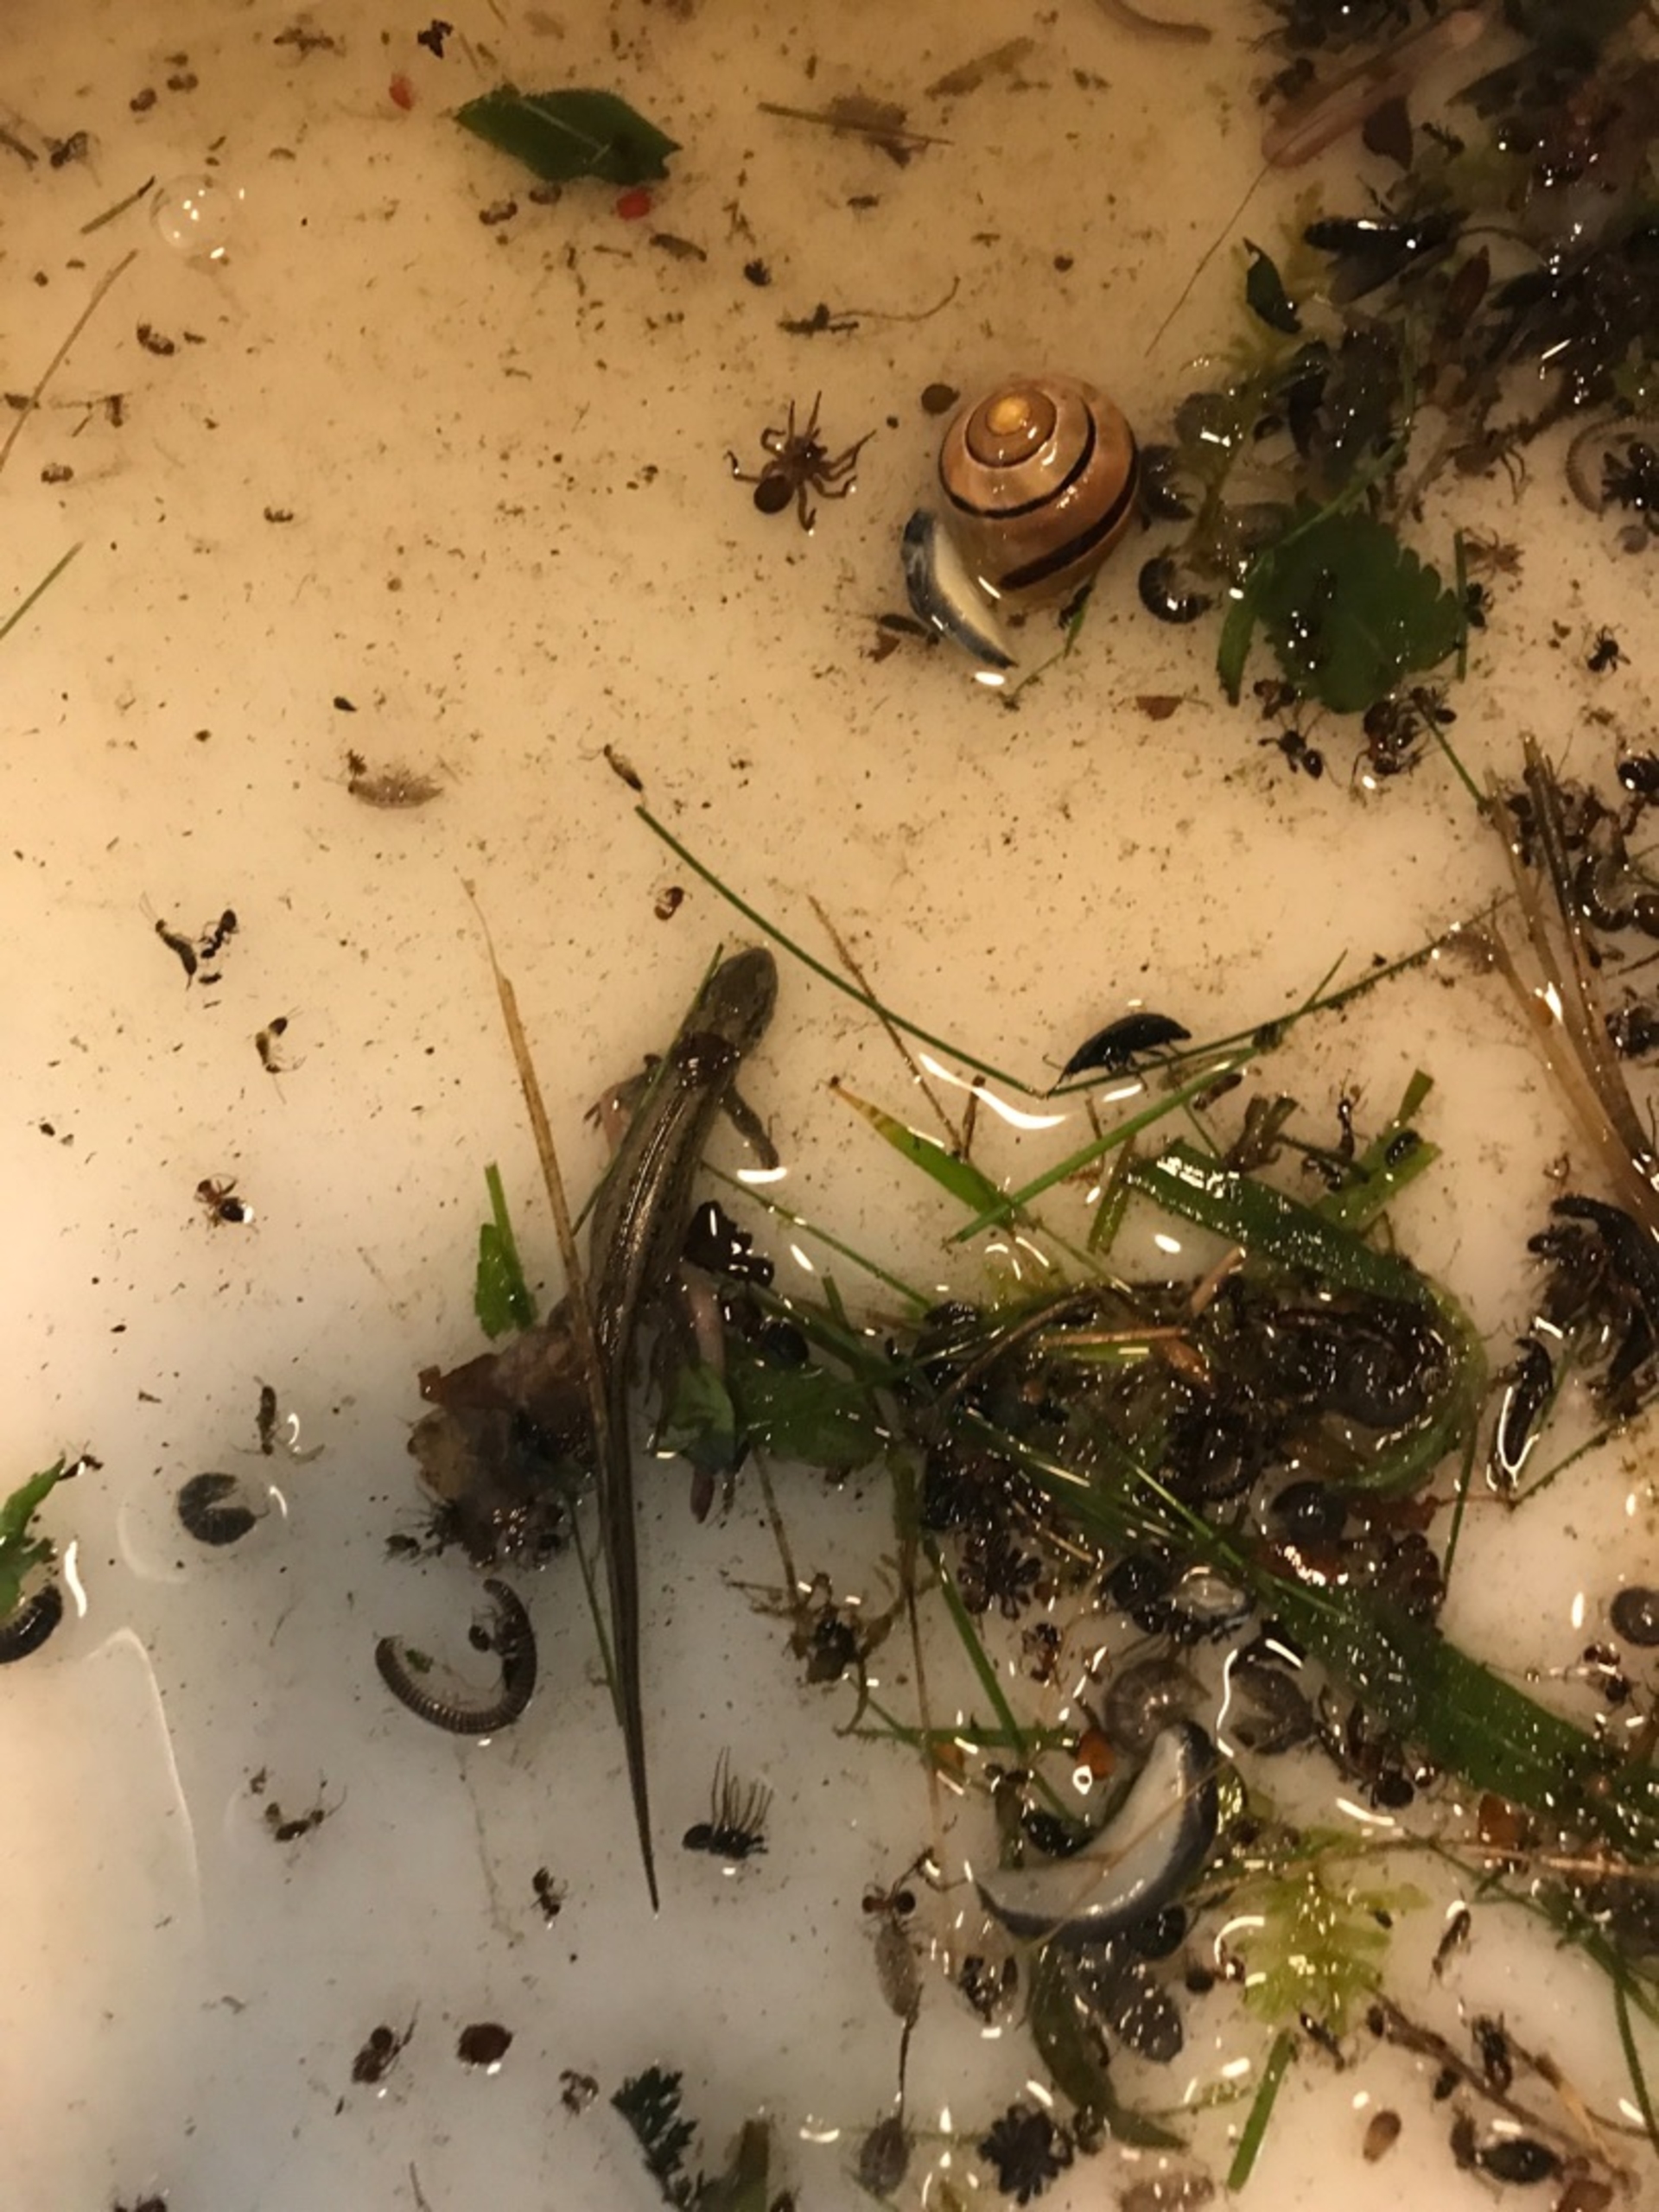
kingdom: Animalia
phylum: Chordata
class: Squamata
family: Lacertidae
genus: Lacerta
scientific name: Lacerta agilis
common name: Markfirben
